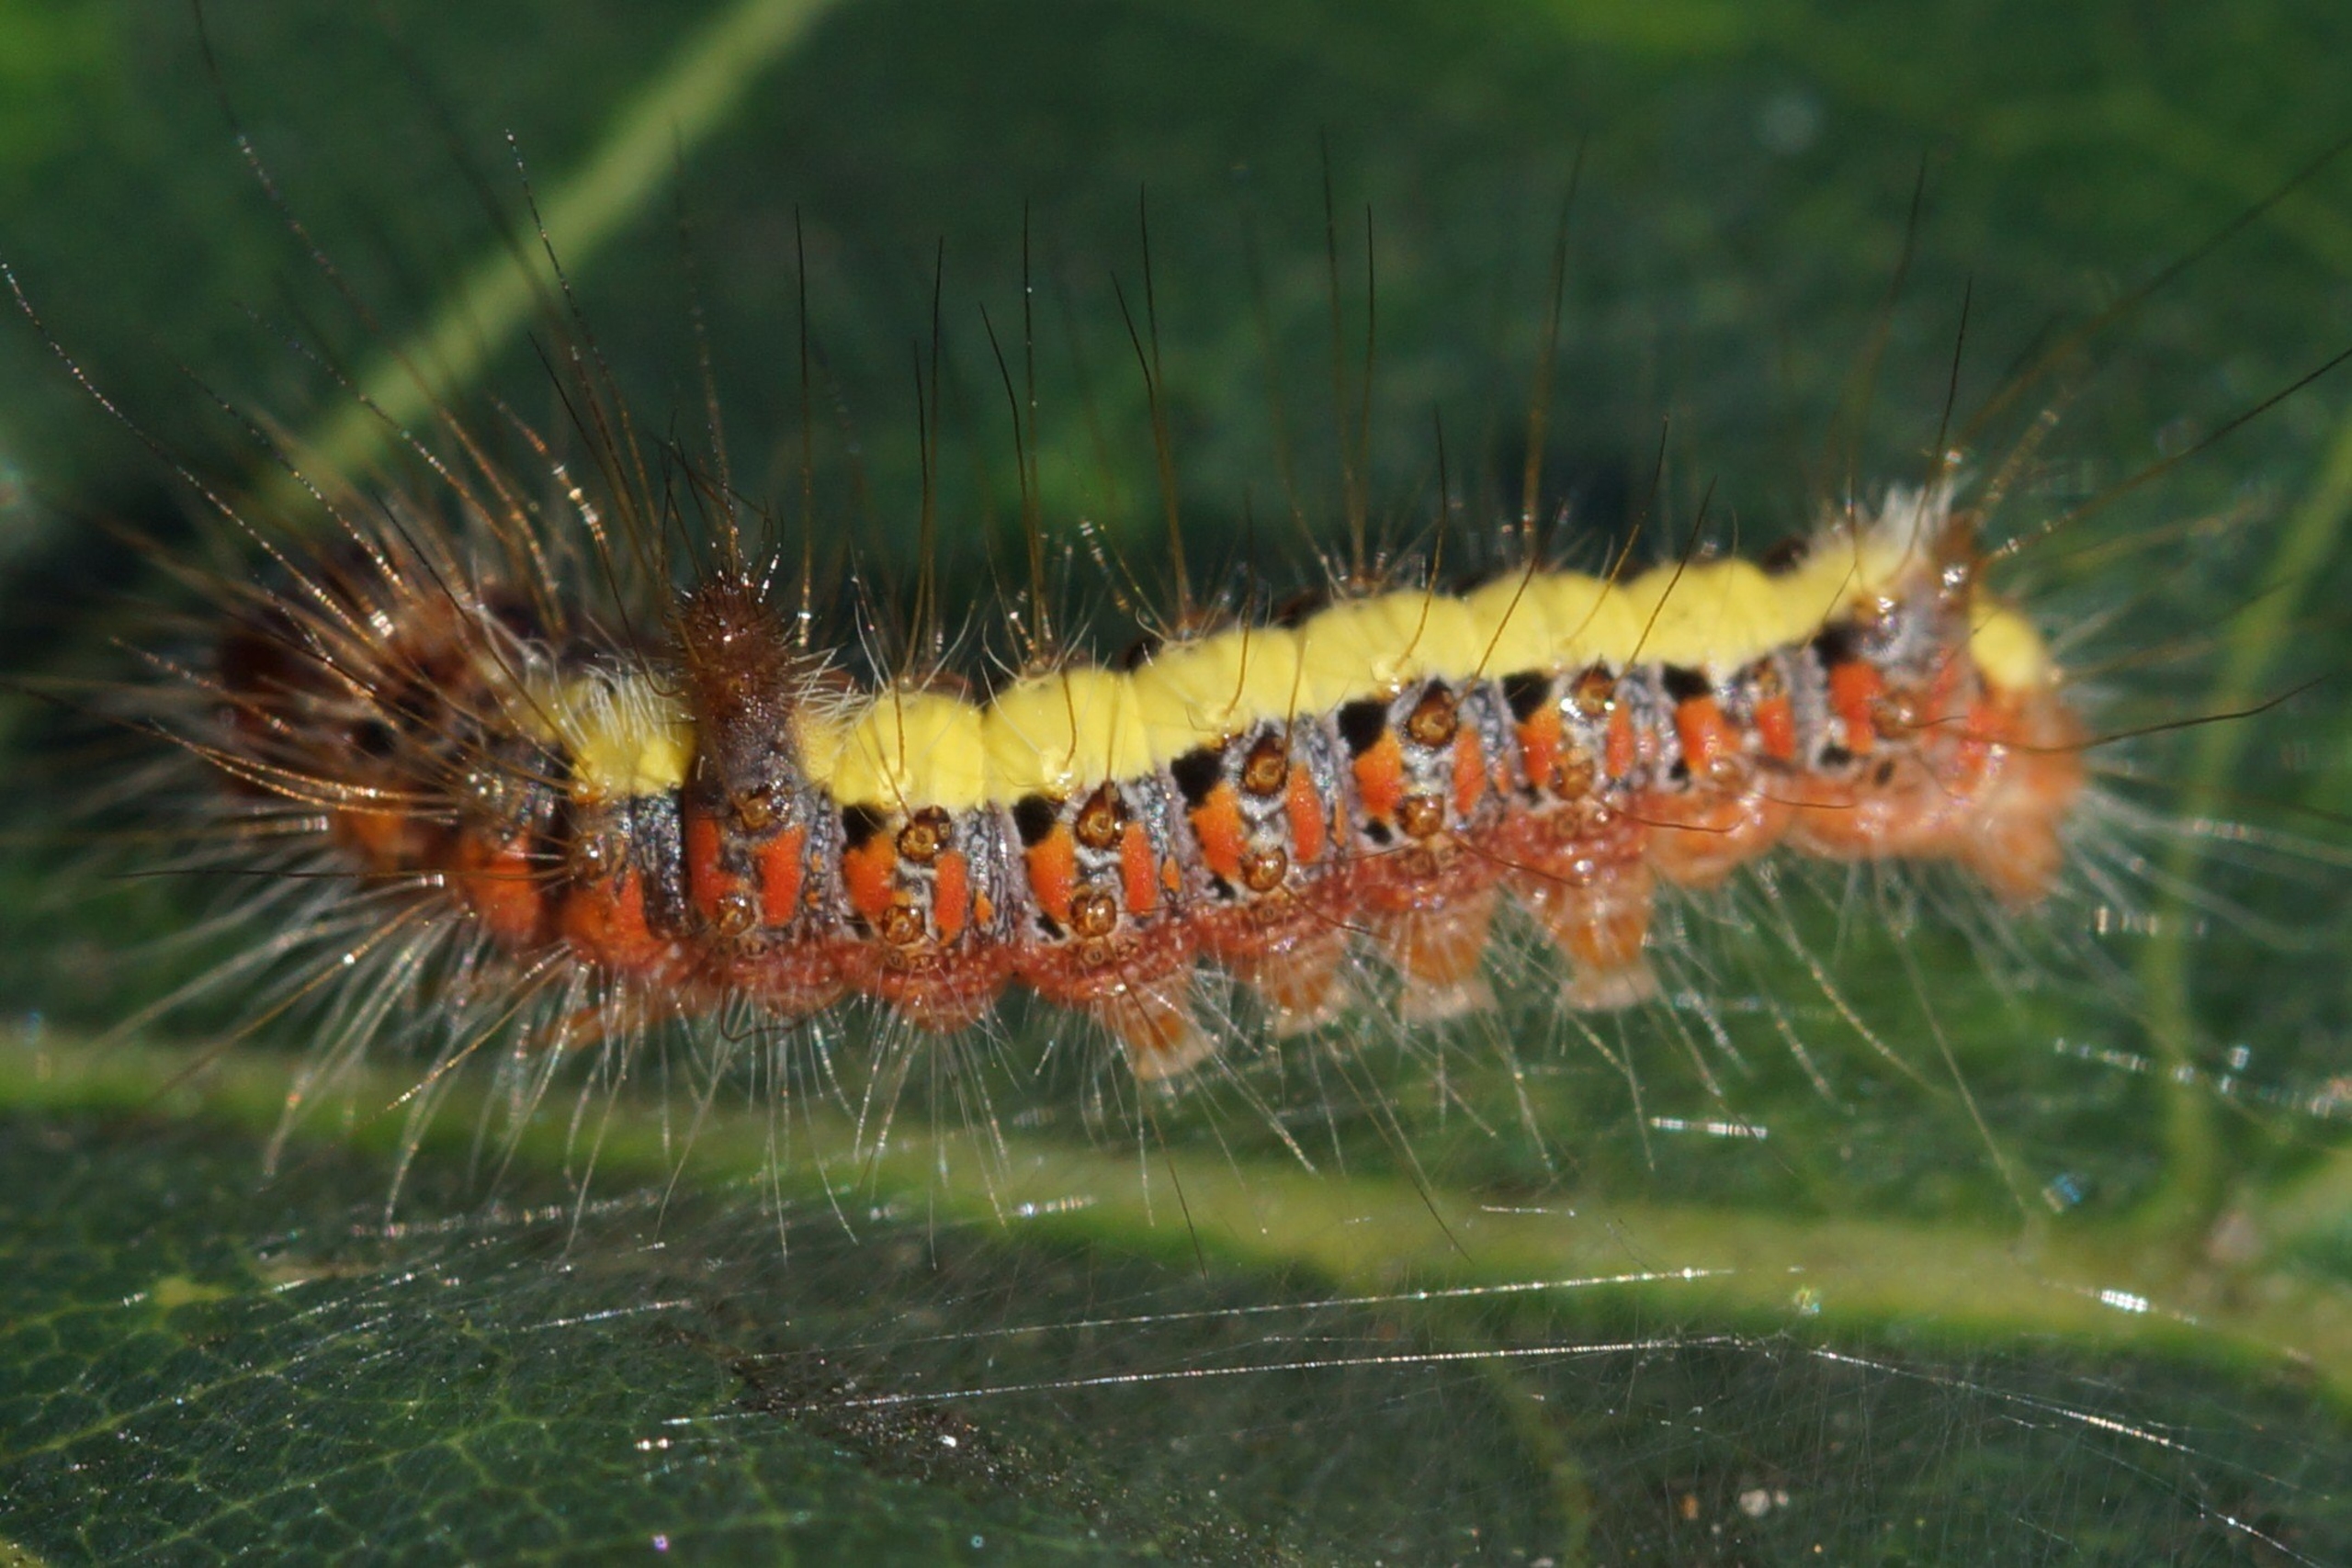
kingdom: Animalia
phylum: Arthropoda
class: Insecta
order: Lepidoptera
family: Noctuidae
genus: Acronicta
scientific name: Acronicta psi
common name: Psi-ugle
